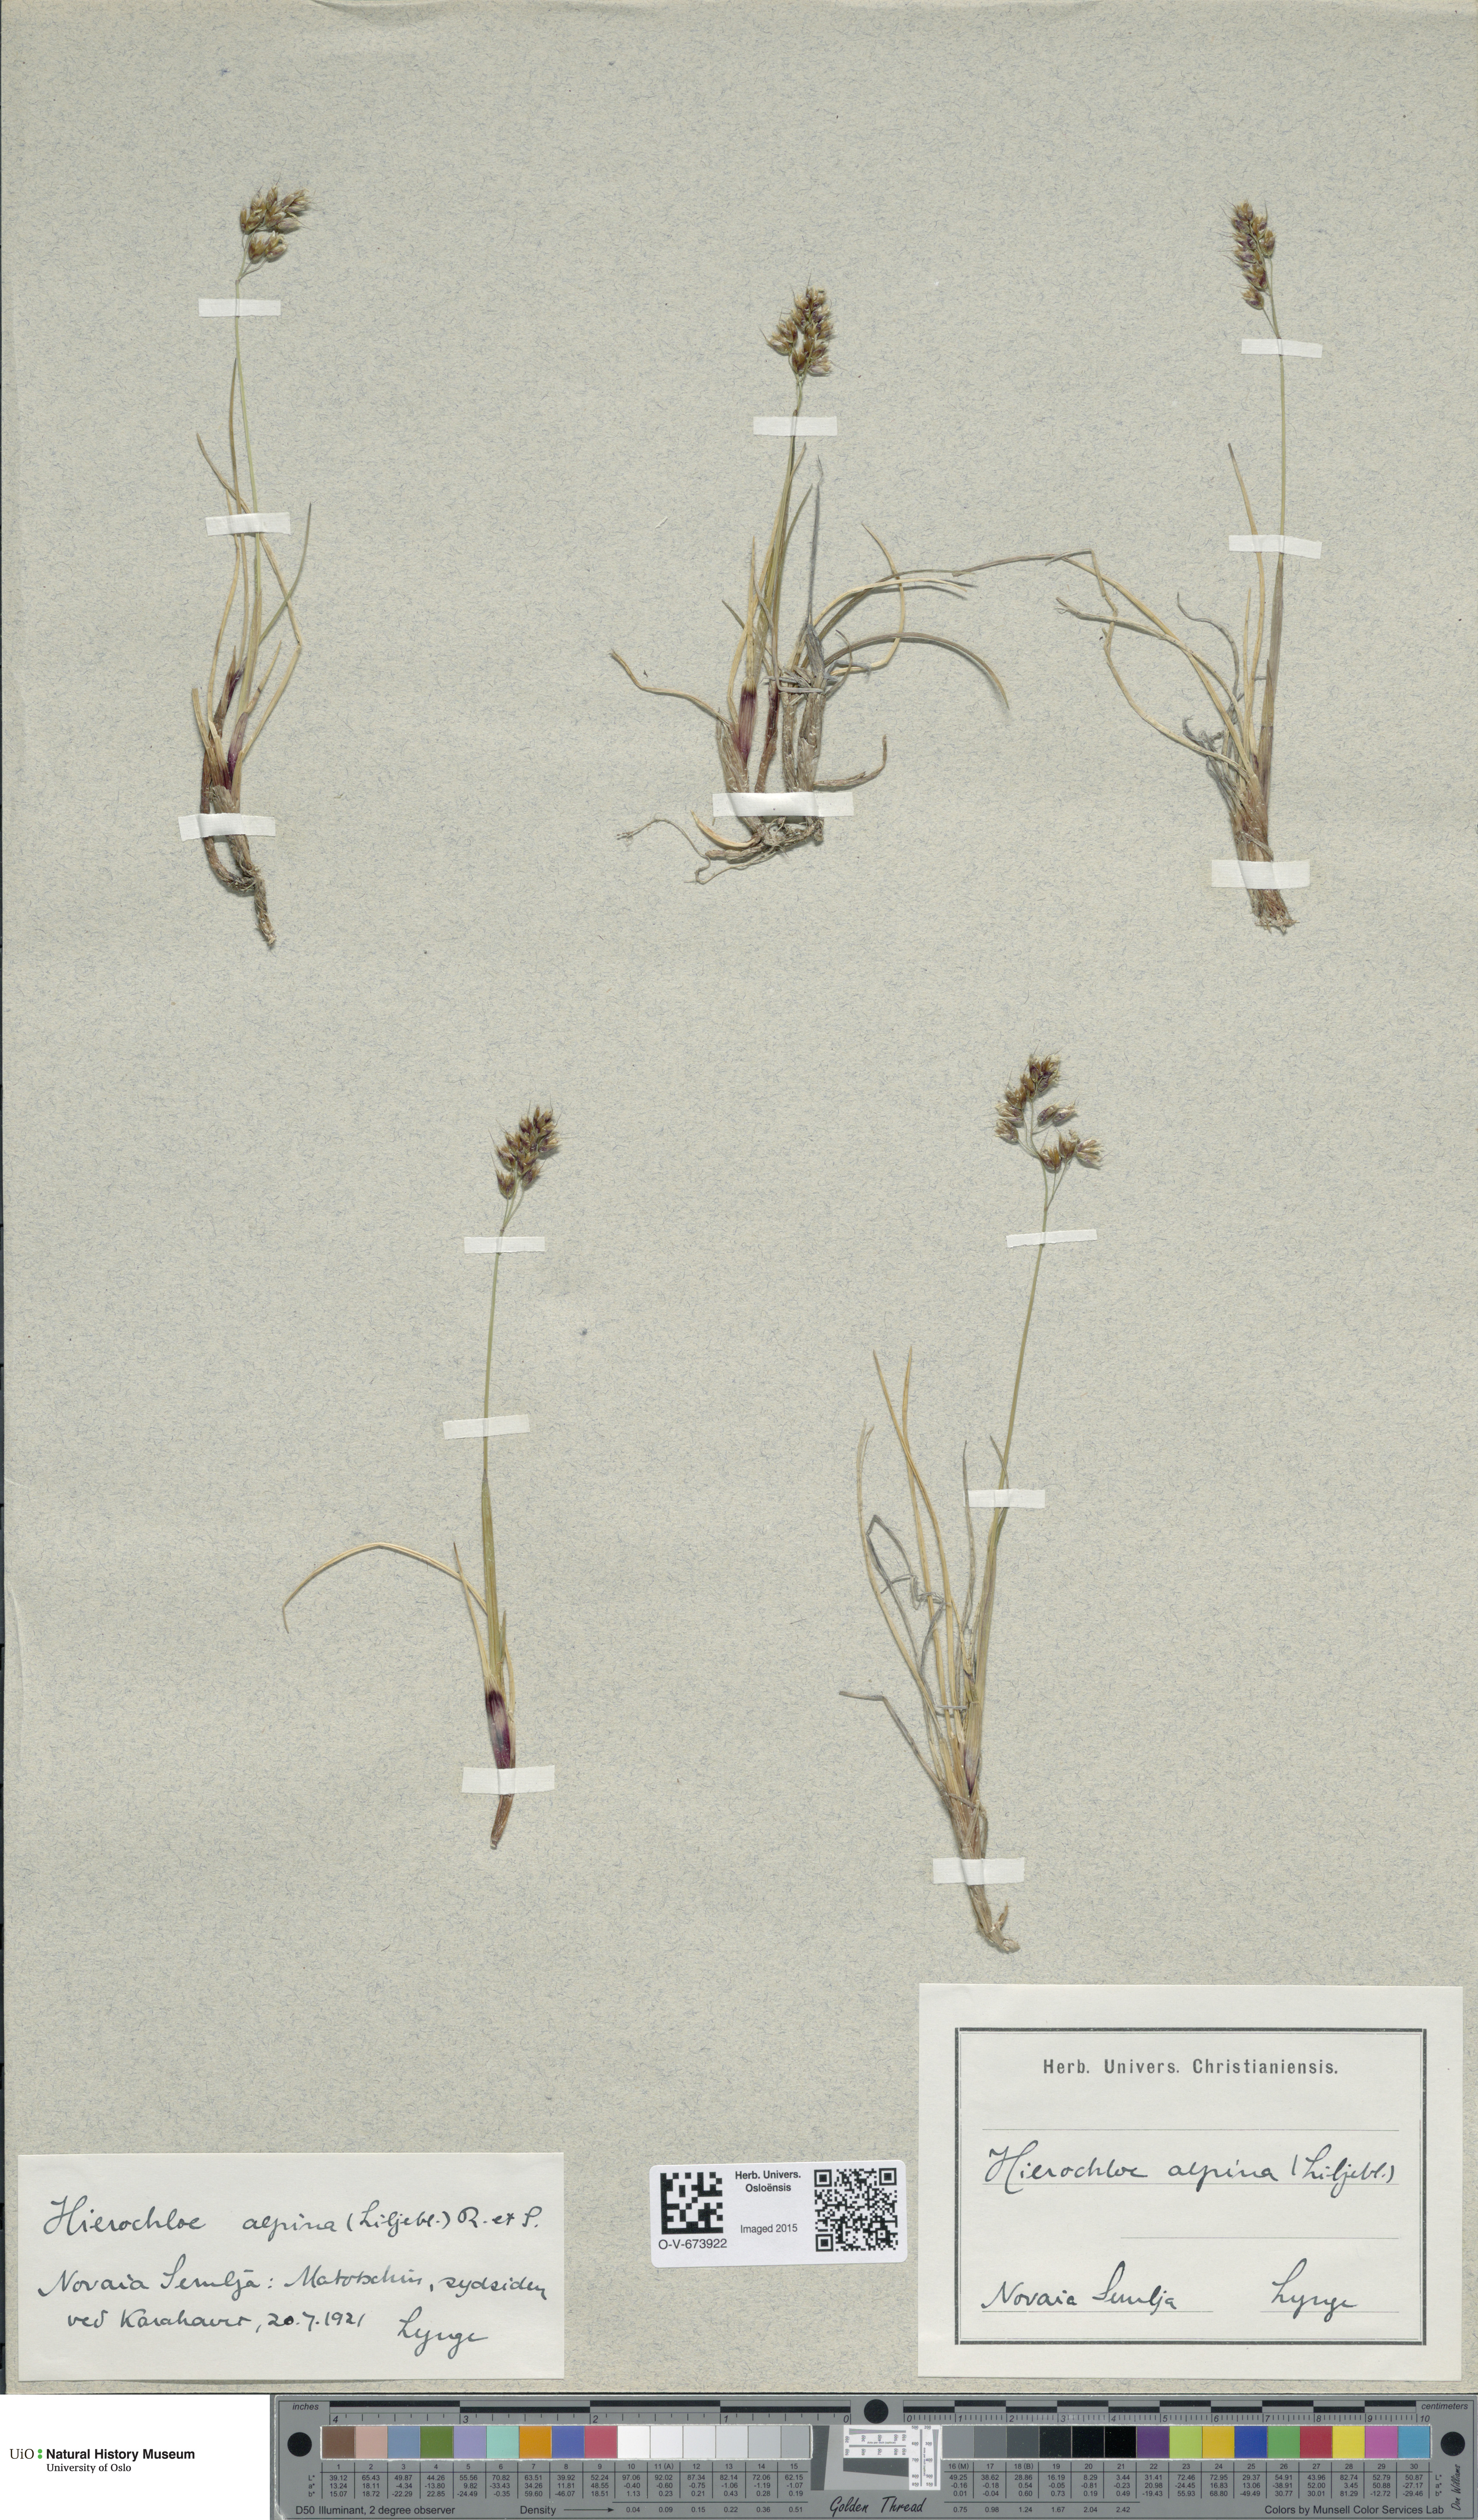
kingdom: Plantae
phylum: Tracheophyta
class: Liliopsida
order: Poales
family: Poaceae
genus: Anthoxanthum
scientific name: Anthoxanthum monticola
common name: Alpine sweetgrass
